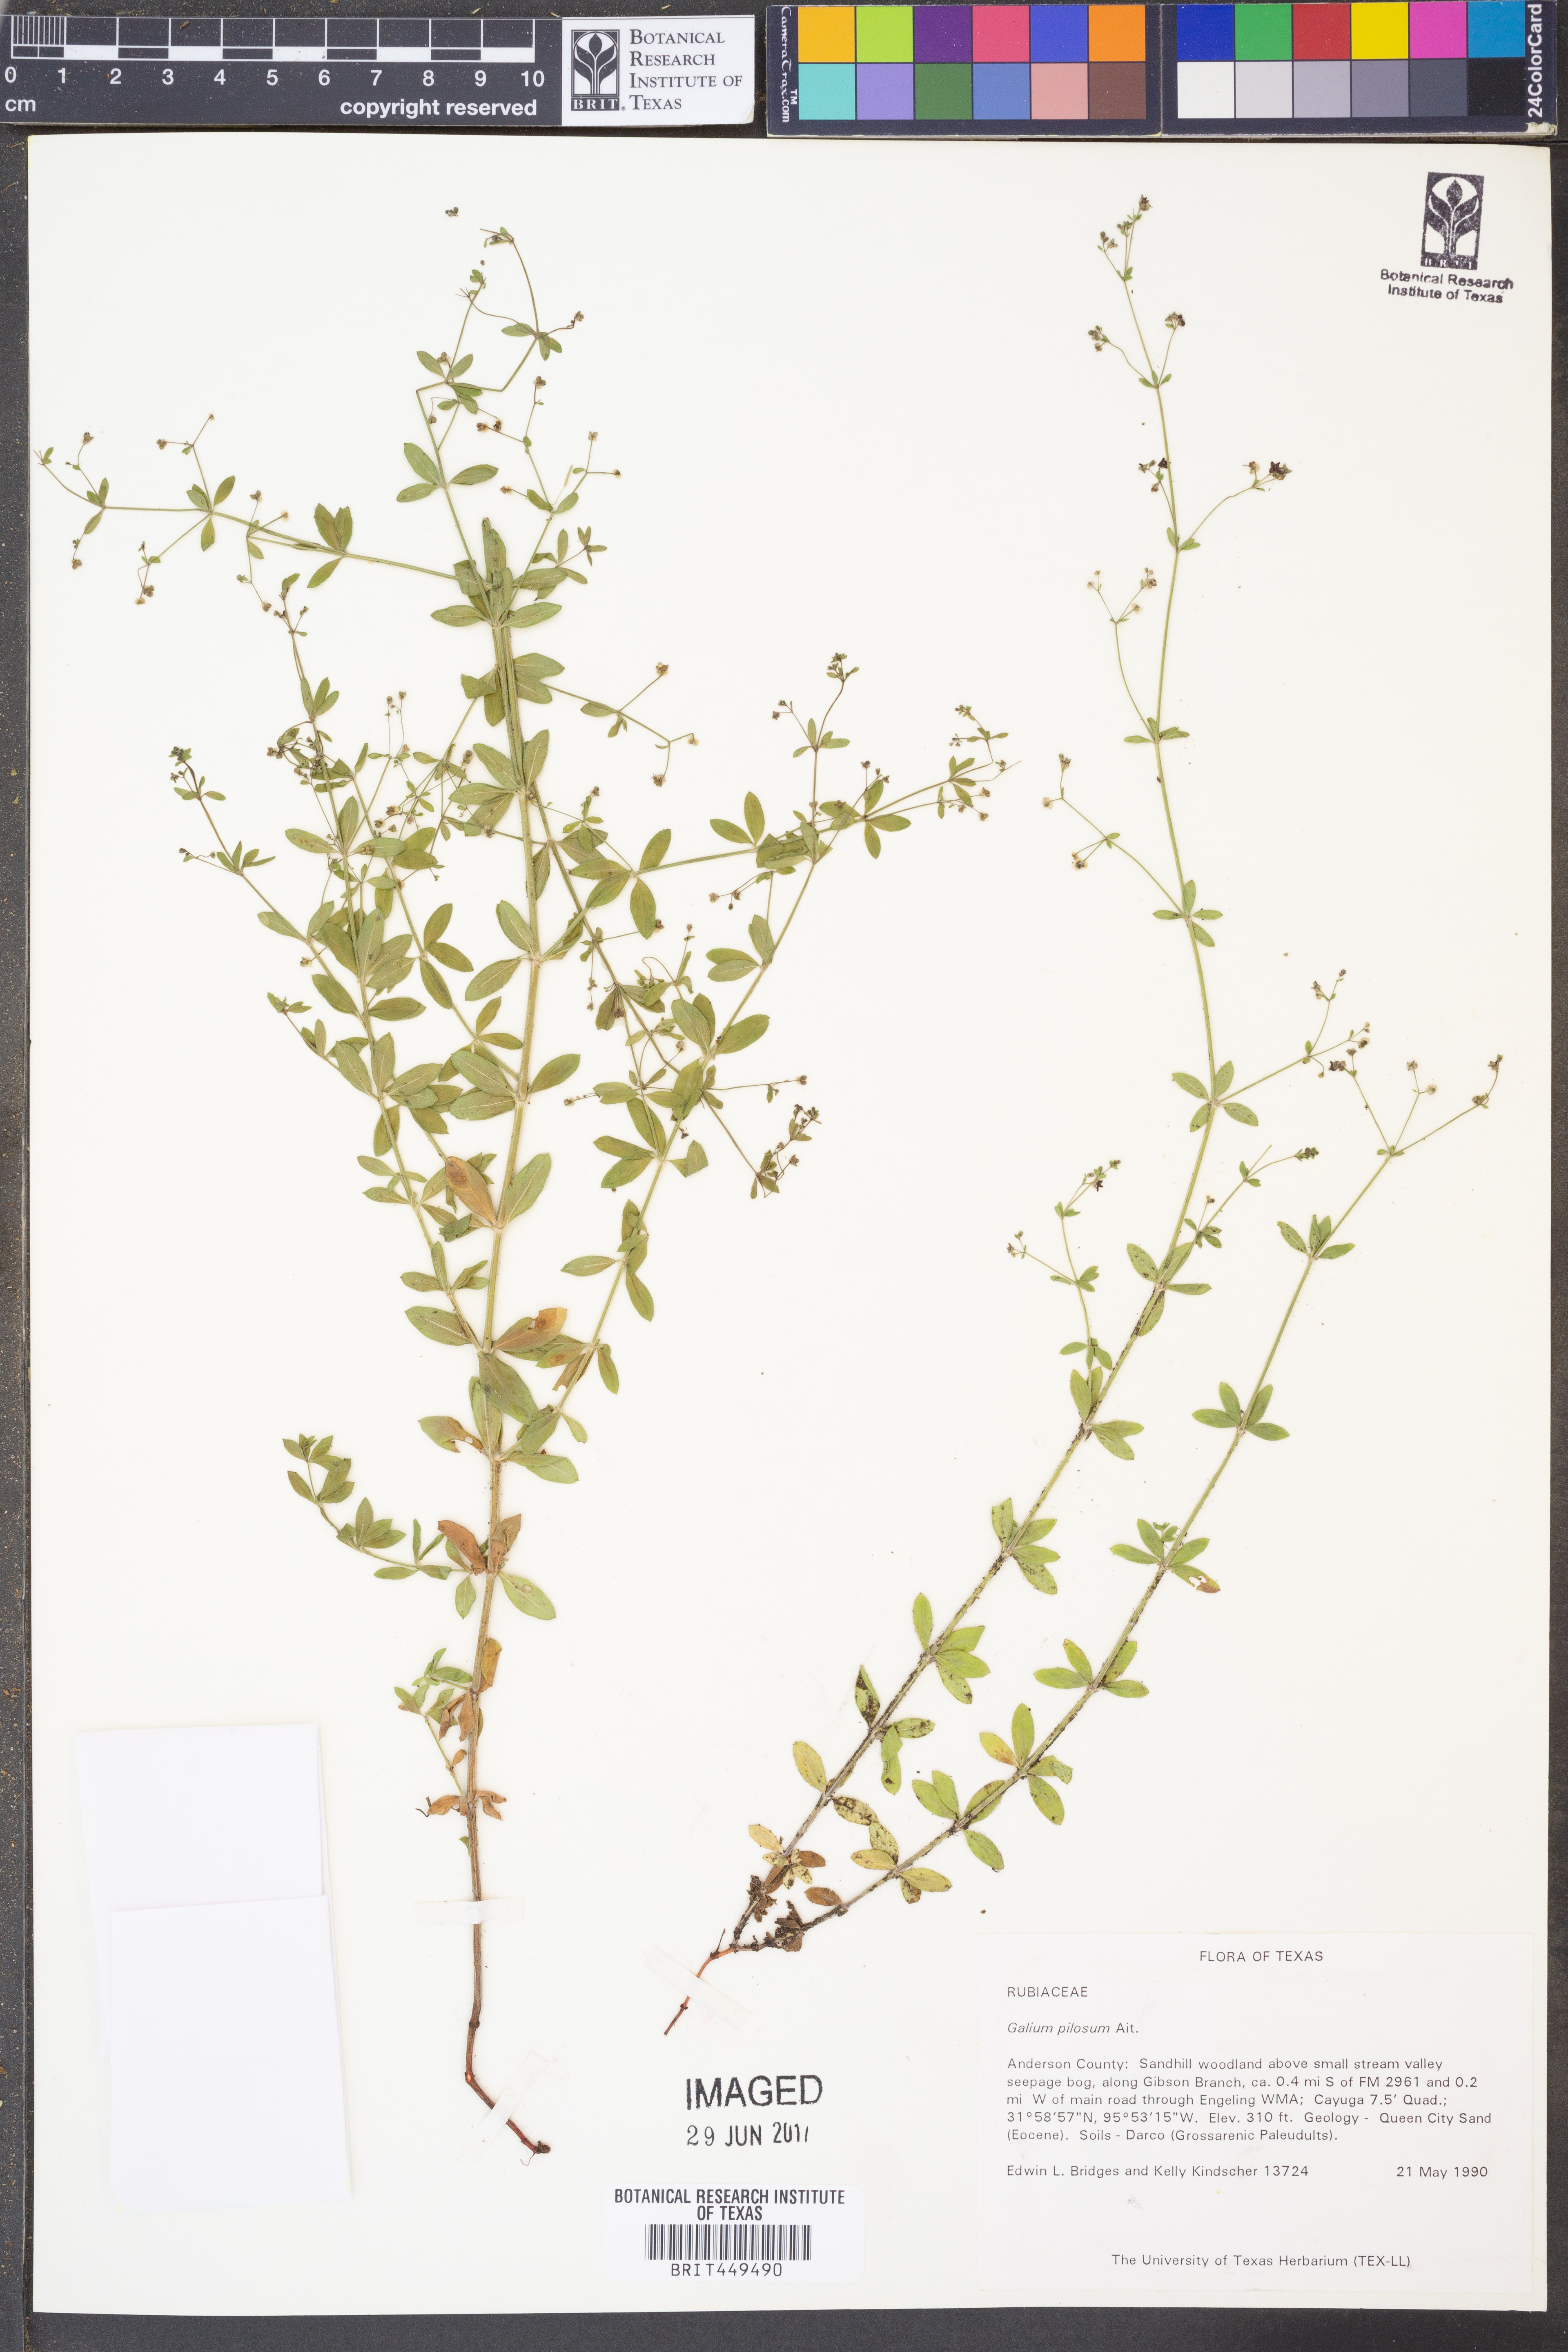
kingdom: Plantae
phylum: Tracheophyta
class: Magnoliopsida
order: Gentianales
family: Rubiaceae
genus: Galium
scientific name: Galium pilosum
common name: Hairy bedstraw
